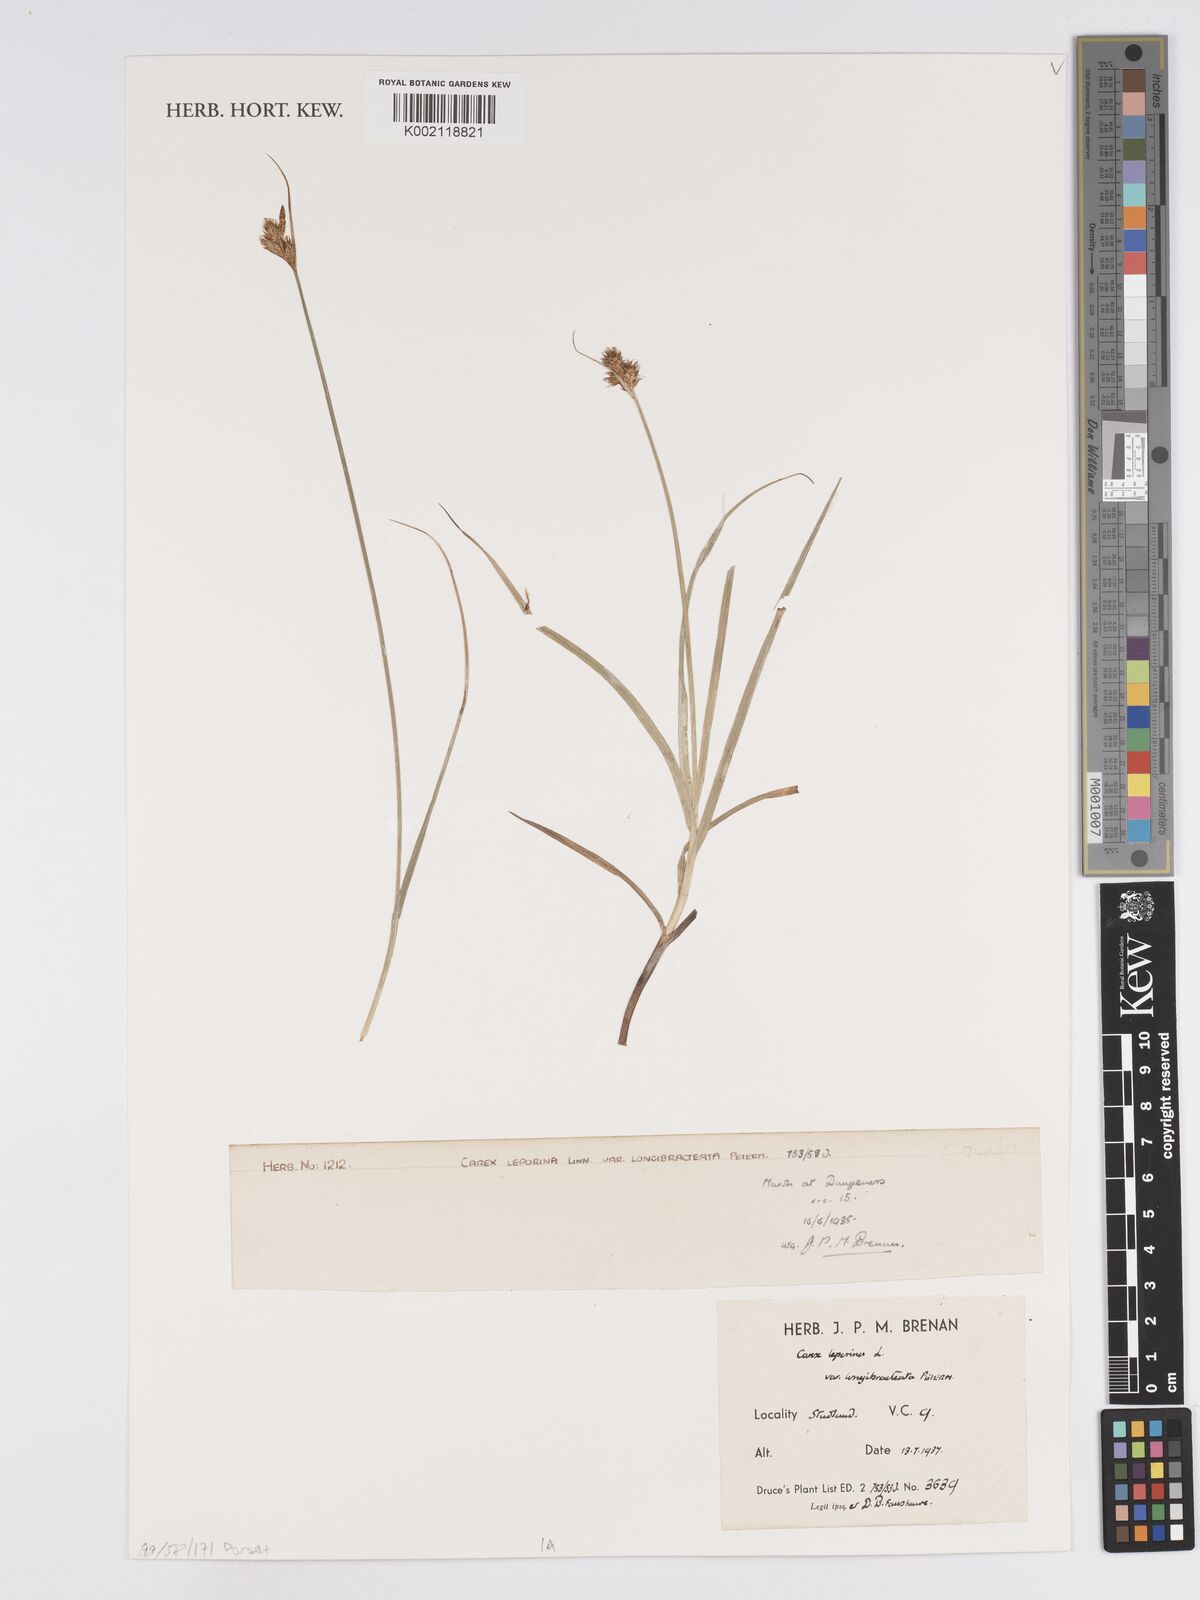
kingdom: Plantae
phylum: Tracheophyta
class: Liliopsida
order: Poales
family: Cyperaceae
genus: Carex
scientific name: Carex leporina
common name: Oval sedge
